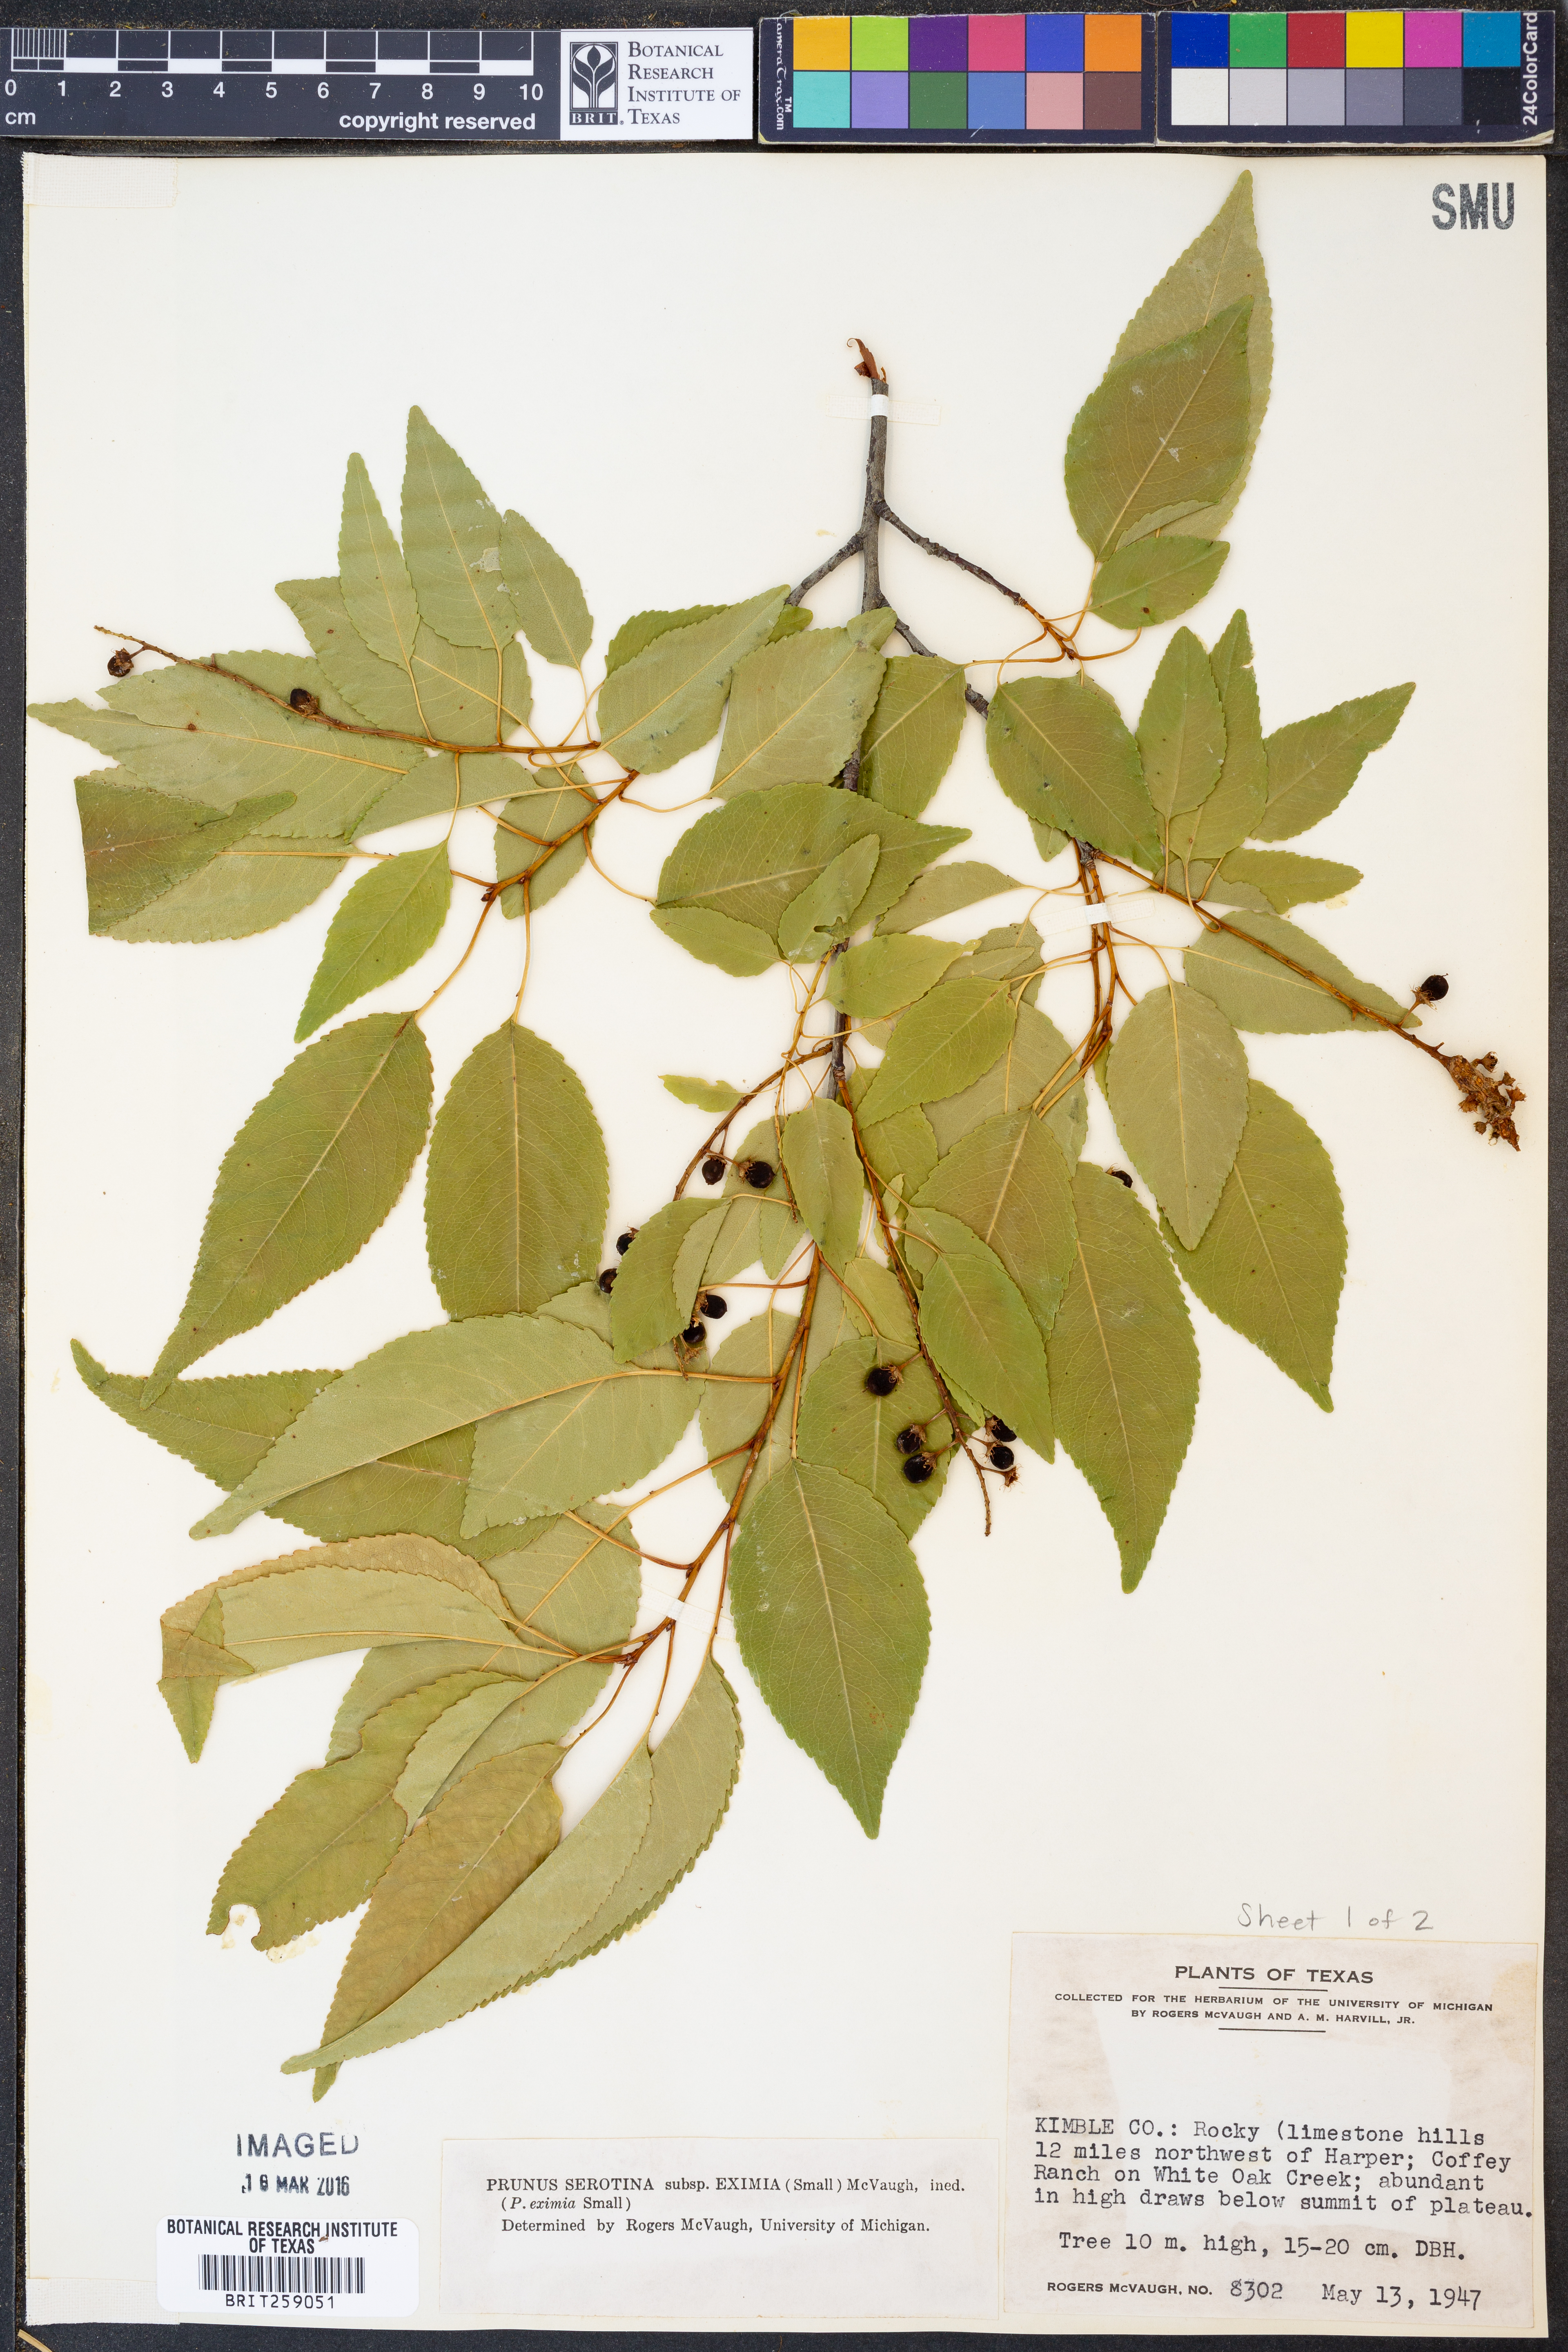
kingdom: Plantae
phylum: Tracheophyta
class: Magnoliopsida
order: Rosales
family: Rosaceae
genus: Prunus
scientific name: Prunus serotina
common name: Black cherry
